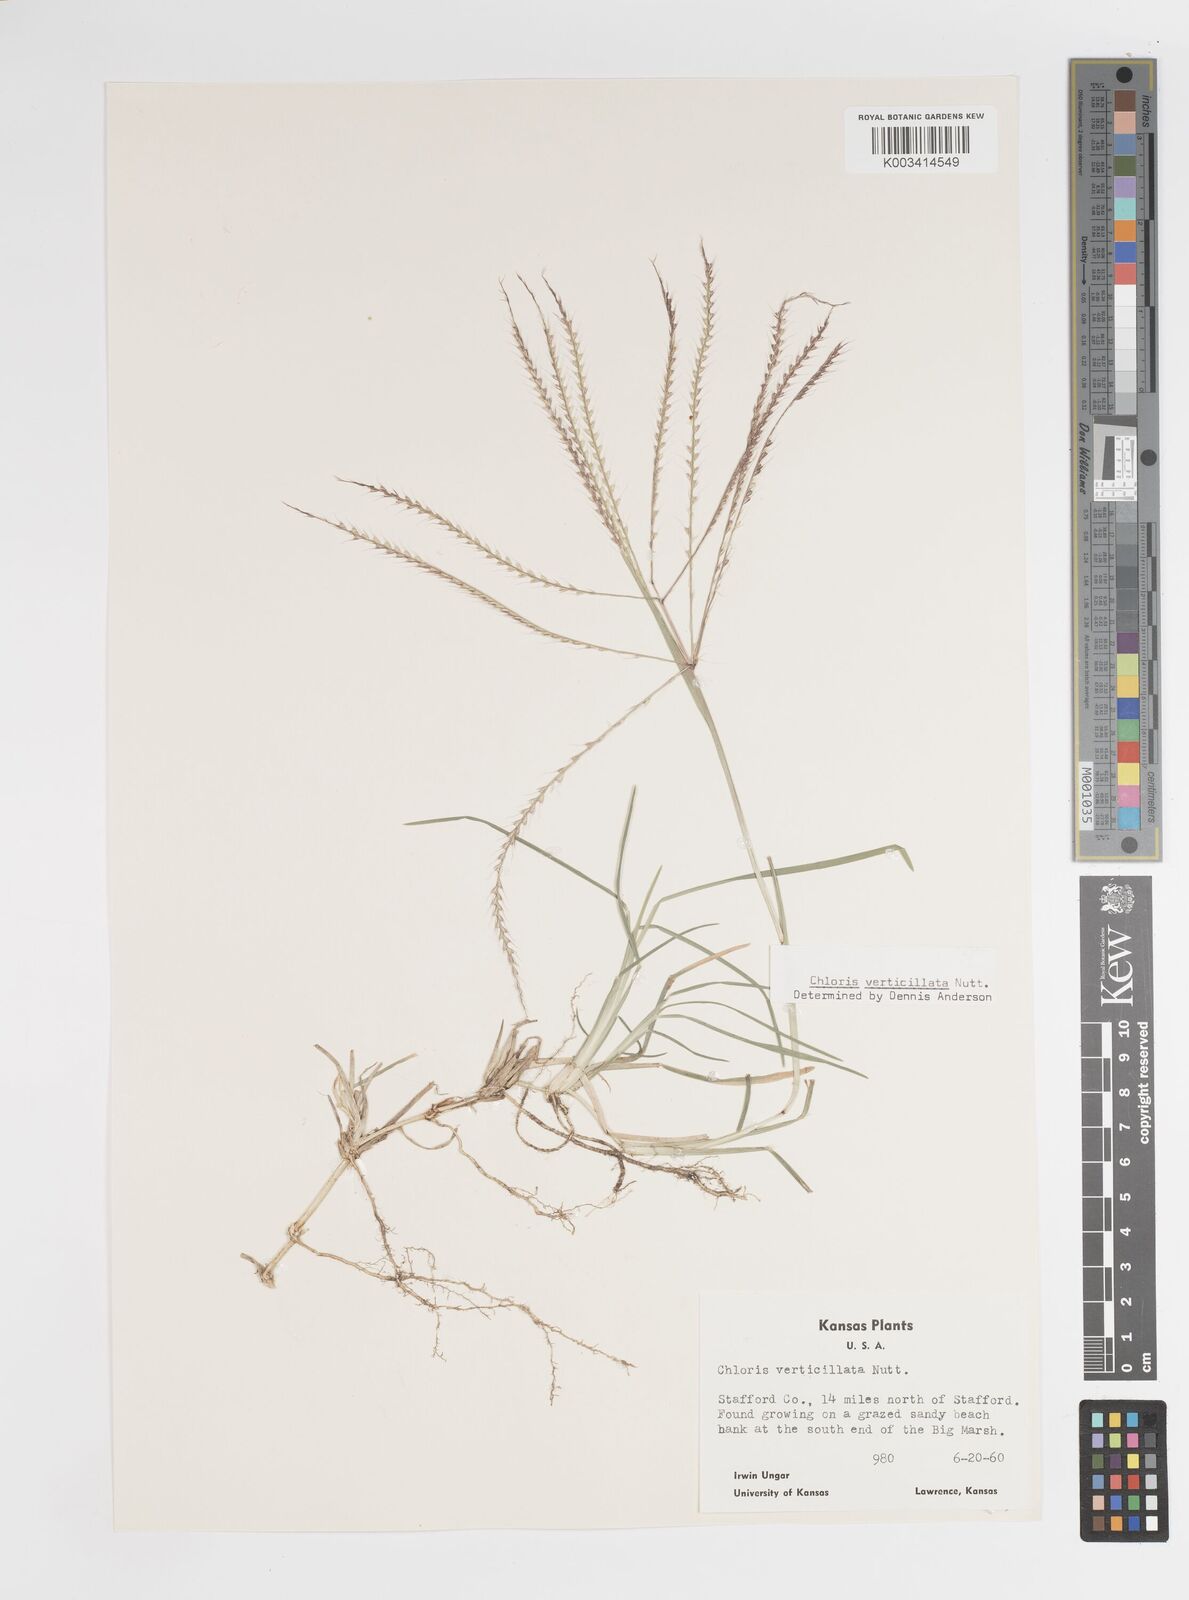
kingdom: Plantae
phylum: Tracheophyta
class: Liliopsida
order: Poales
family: Poaceae
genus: Chloris
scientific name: Chloris verticillata
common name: Tumble windmill grass
